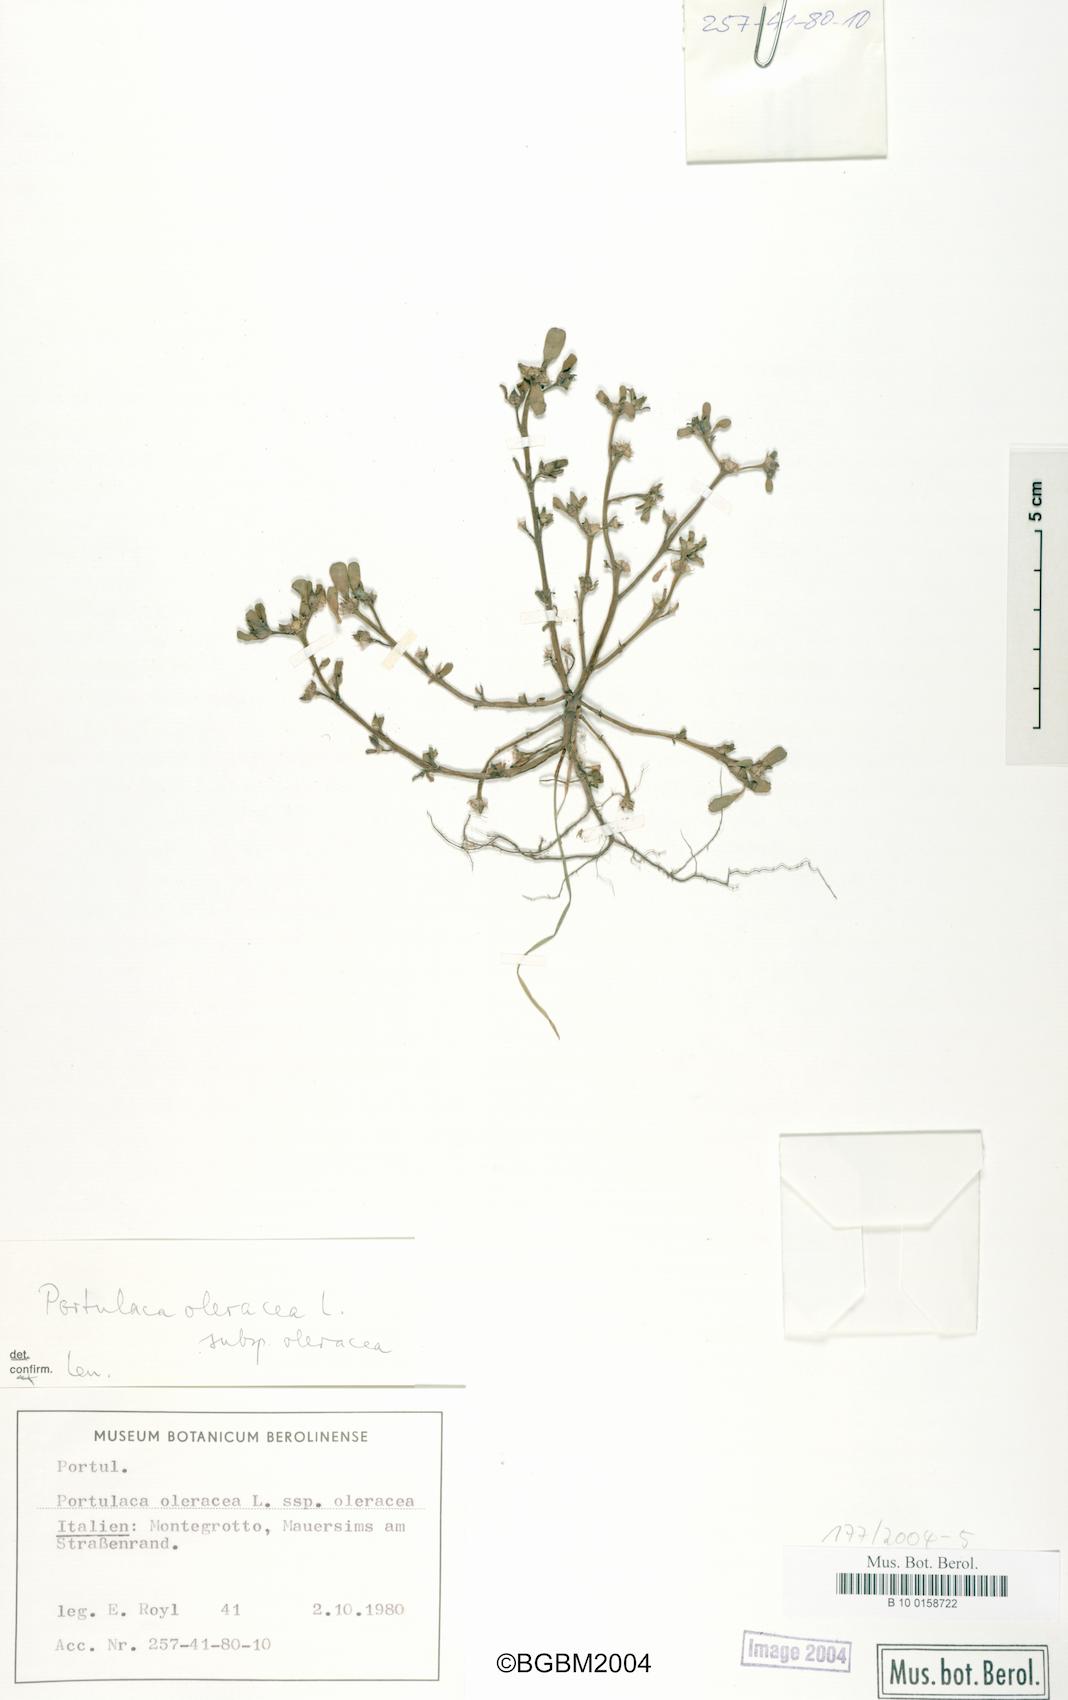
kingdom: Plantae
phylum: Tracheophyta
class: Magnoliopsida
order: Caryophyllales
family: Portulacaceae
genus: Portulaca
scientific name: Portulaca oleracea
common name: Common purslane
